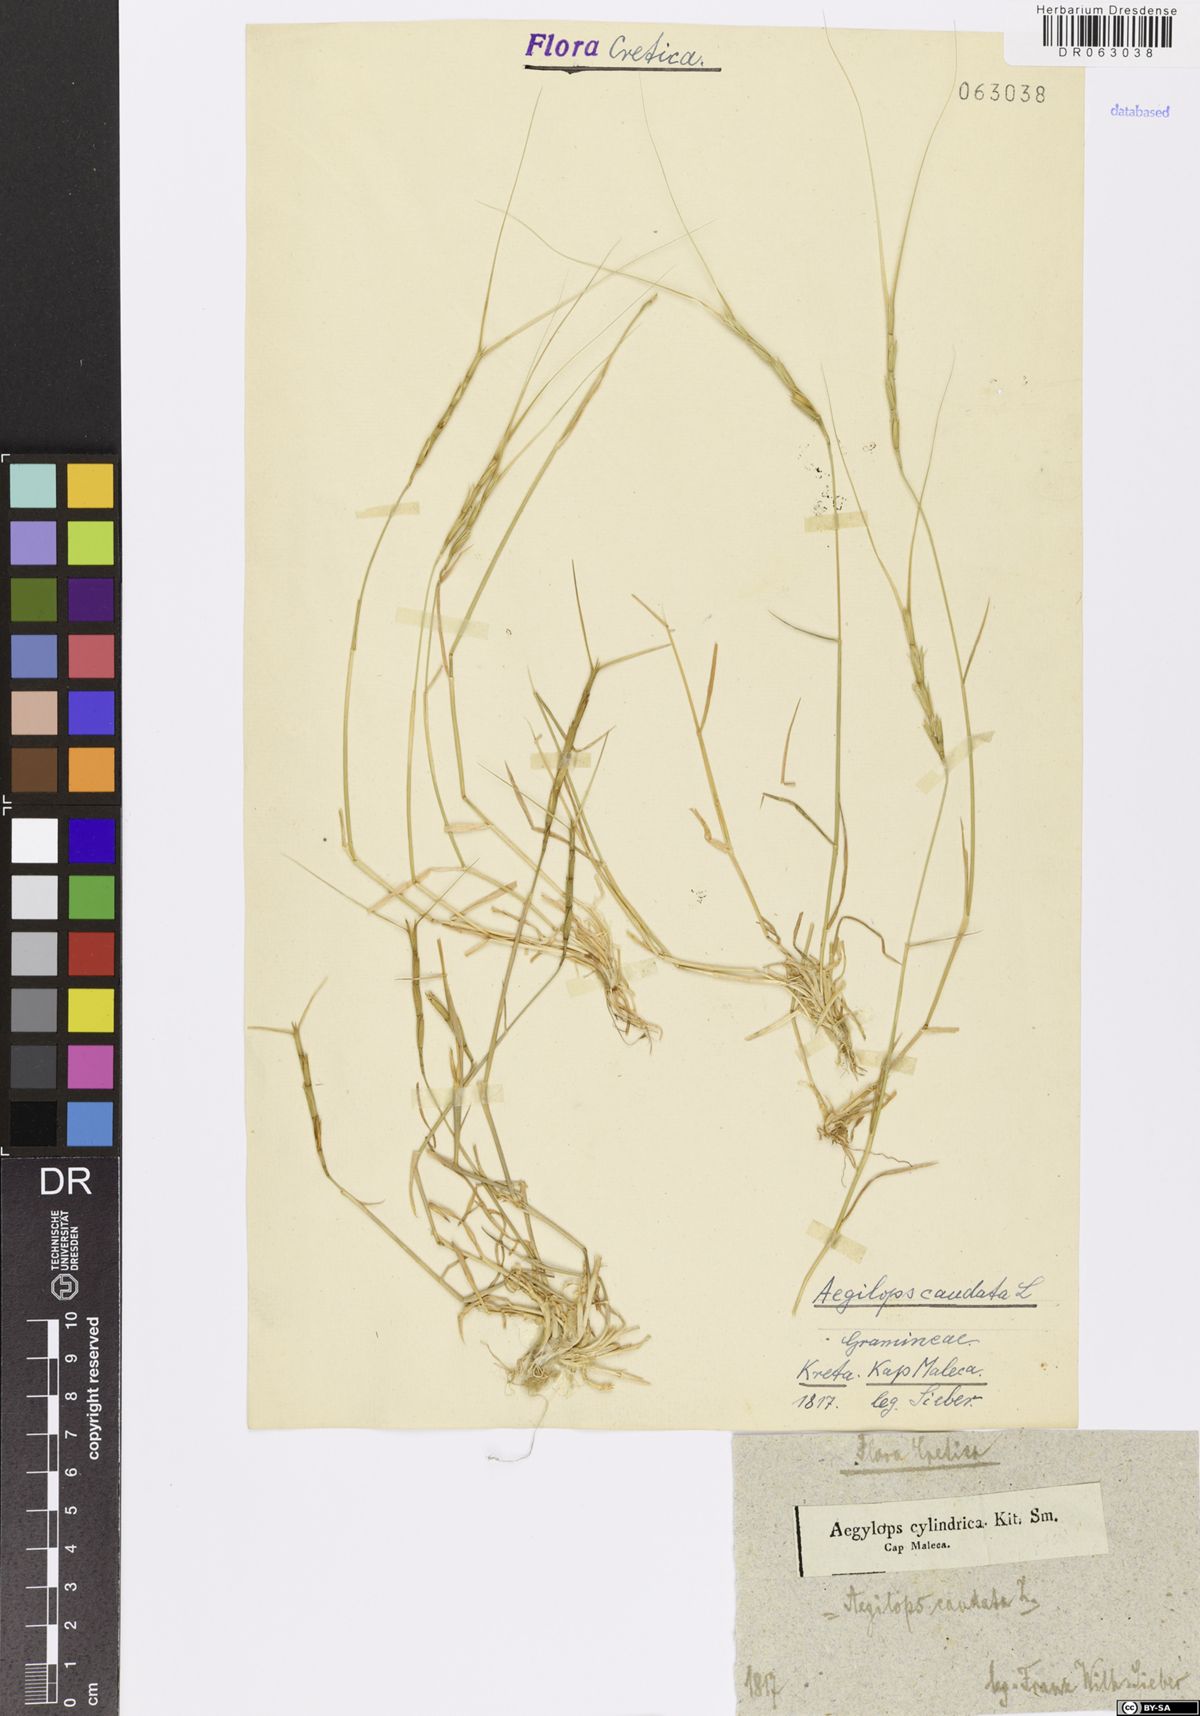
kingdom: Plantae
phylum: Tracheophyta
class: Liliopsida
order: Poales
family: Poaceae
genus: Aegilops
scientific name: Aegilops caudata
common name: Cretan hard-grass
